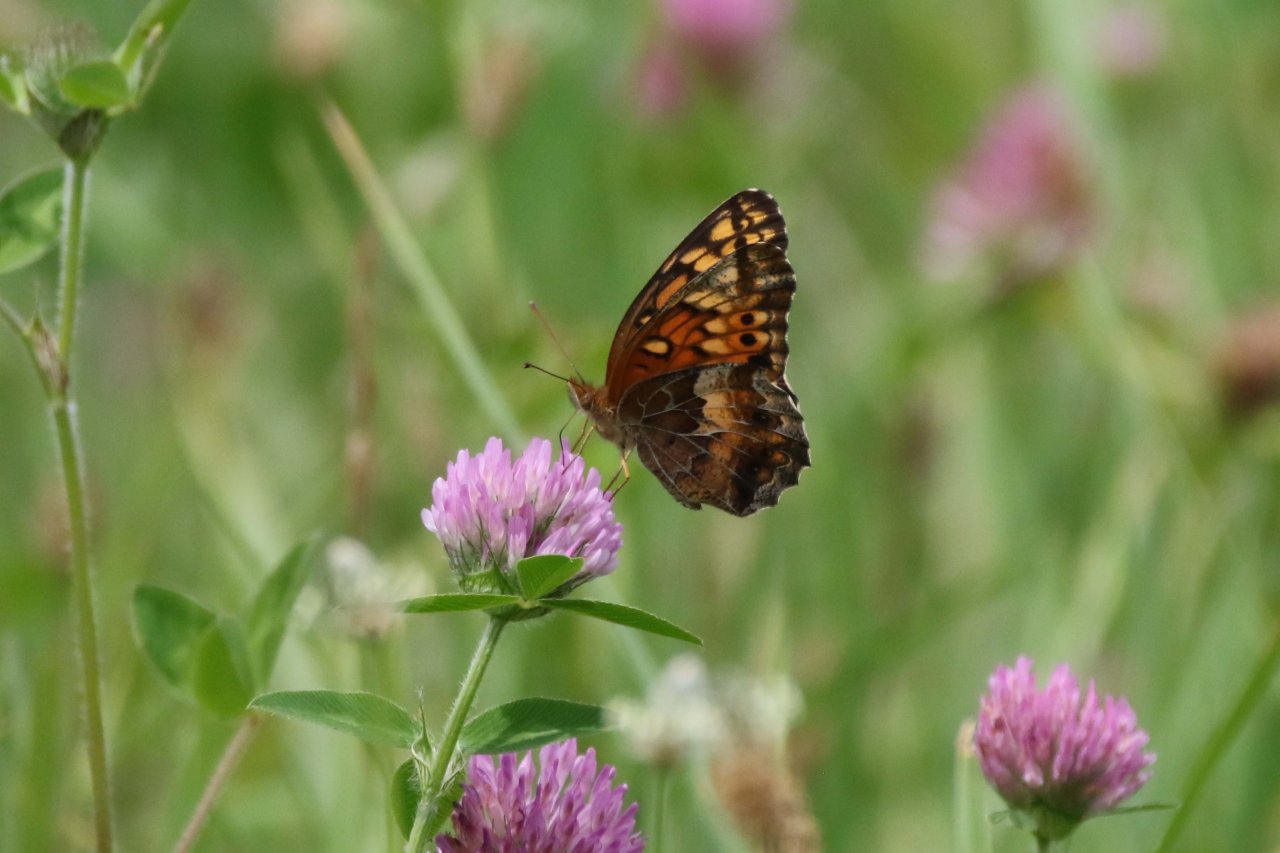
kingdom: Animalia
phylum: Arthropoda
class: Insecta
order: Lepidoptera
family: Nymphalidae
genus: Euptoieta
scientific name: Euptoieta claudia
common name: Variegated Fritillary
